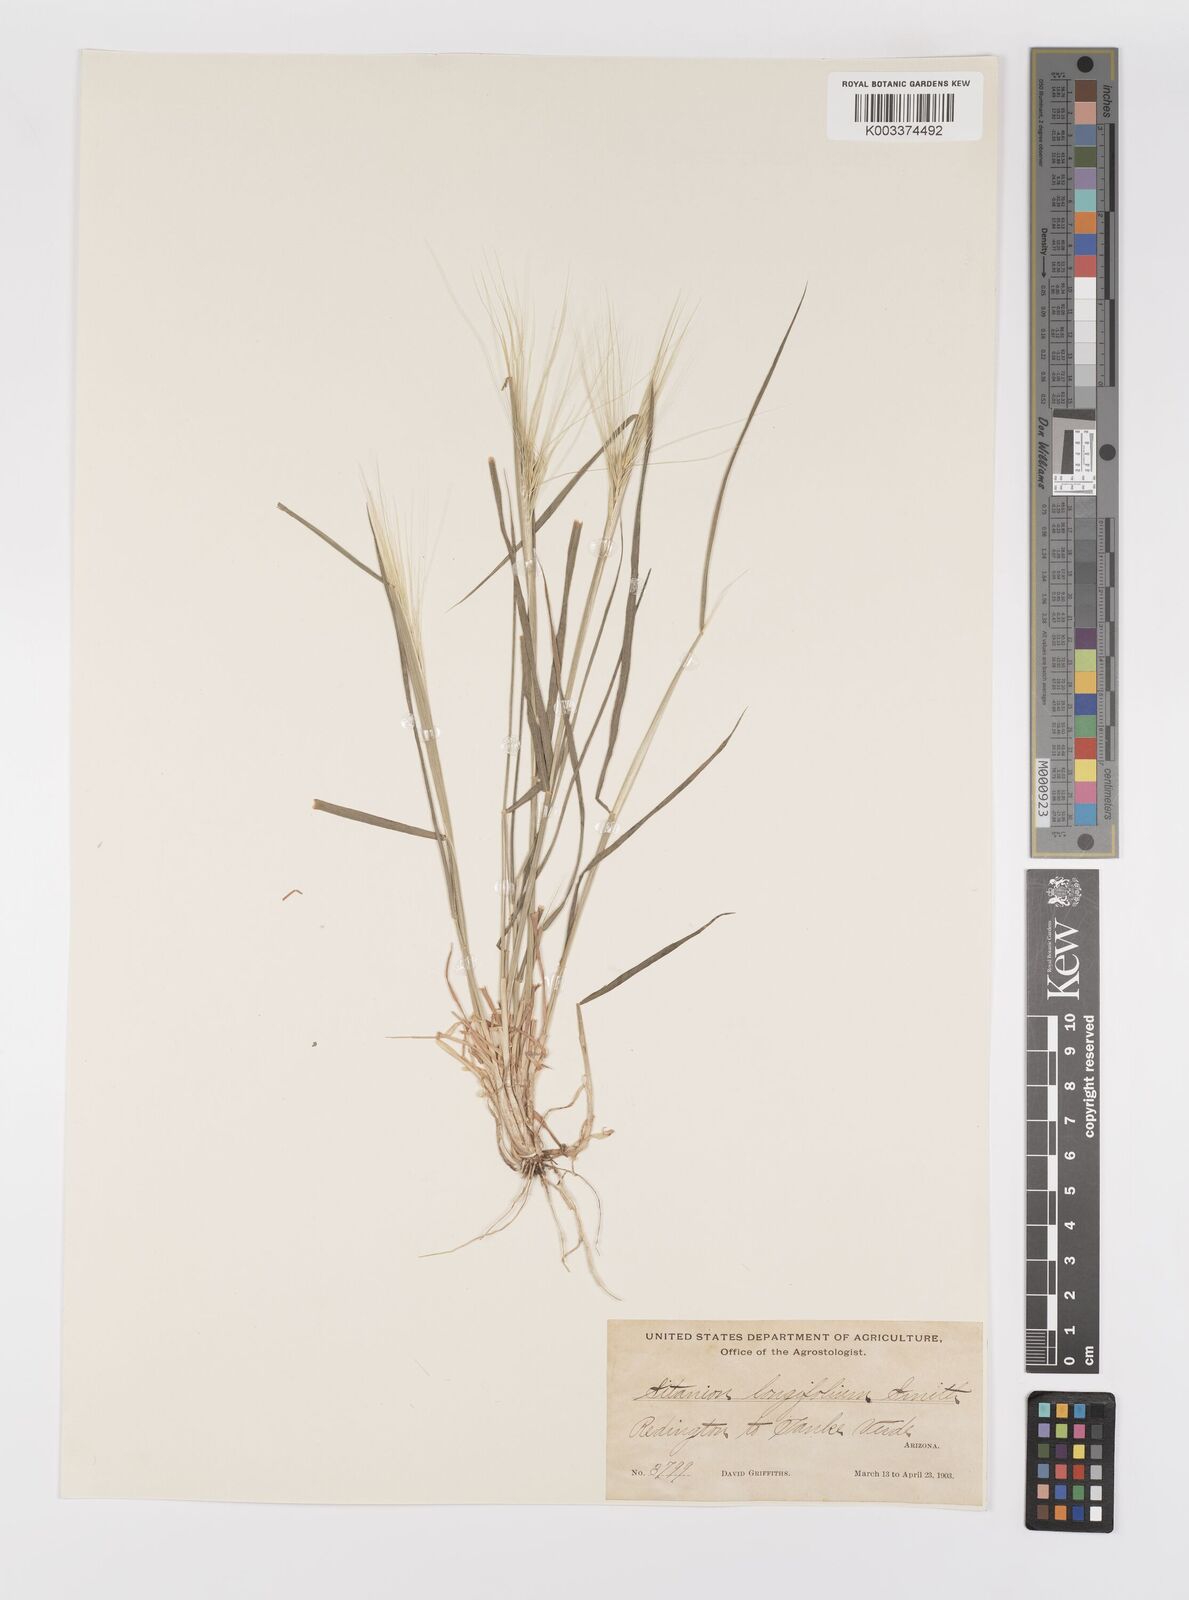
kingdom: Plantae
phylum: Tracheophyta
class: Liliopsida
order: Poales
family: Poaceae
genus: Elymus
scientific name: Elymus elymoides
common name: Bottlebrush squirreltail
